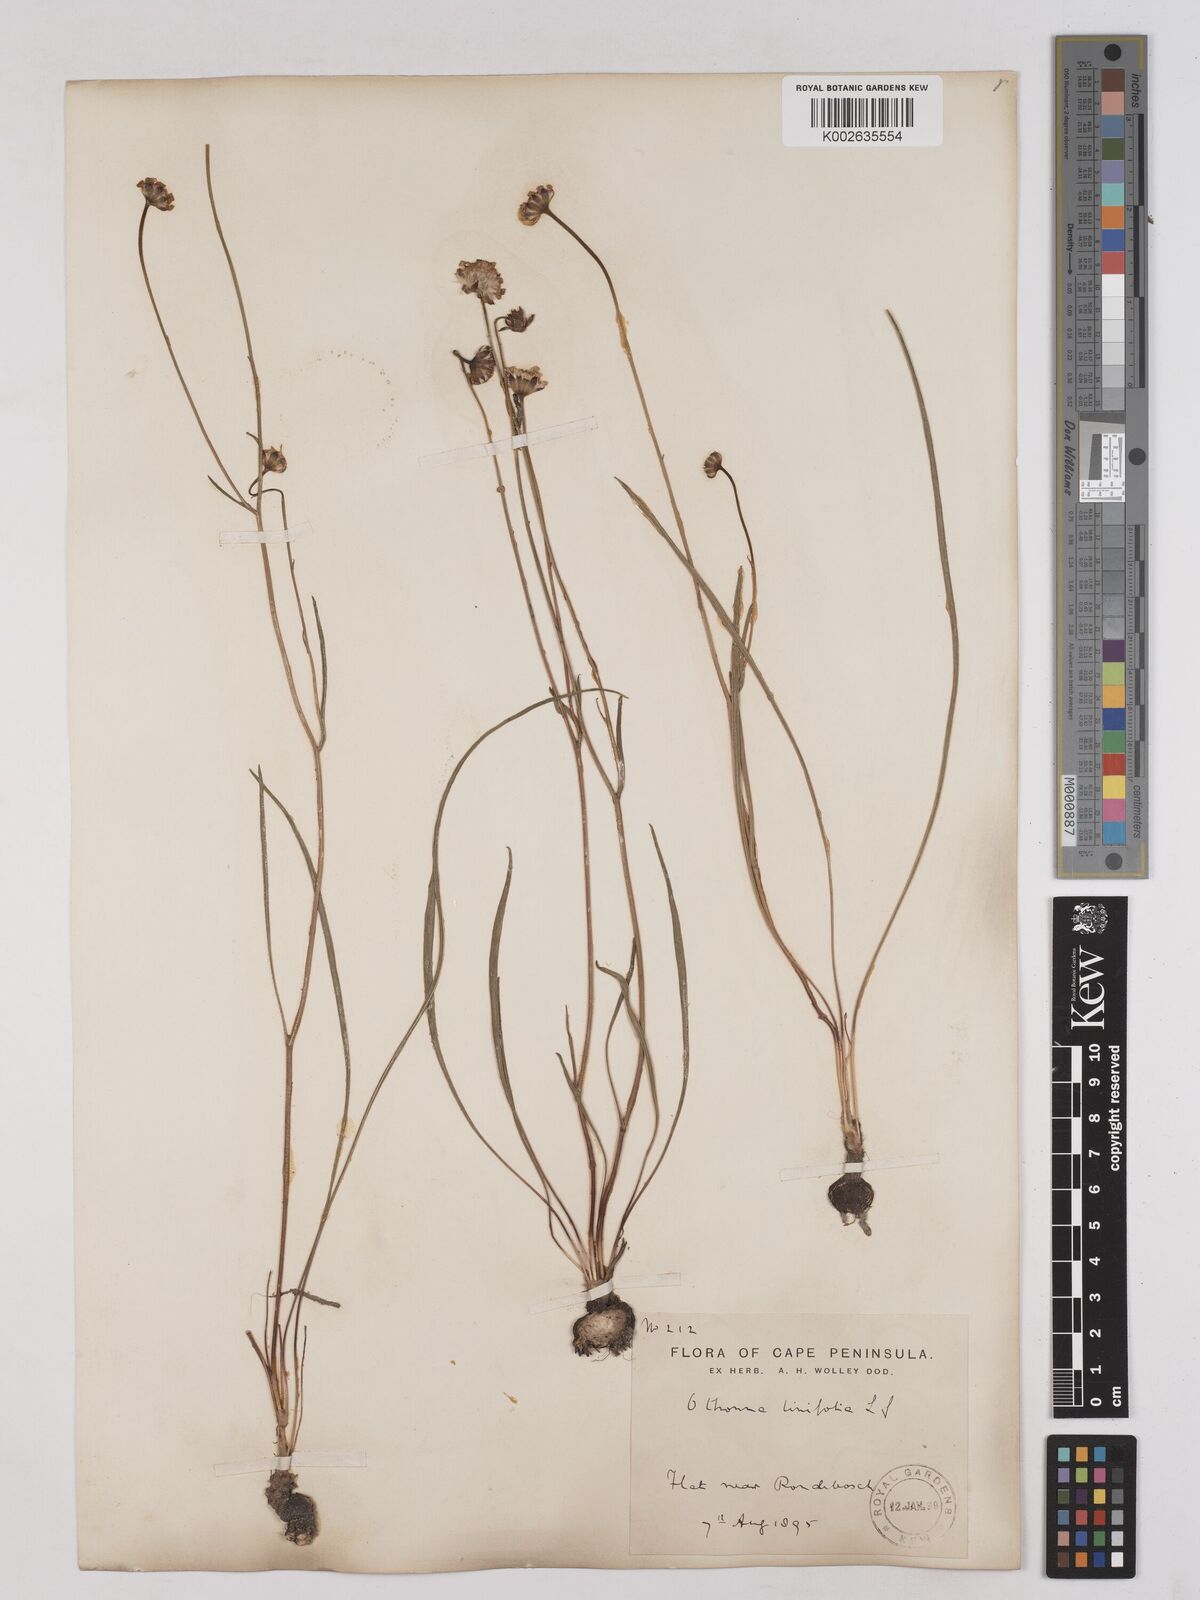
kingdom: Plantae
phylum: Tracheophyta
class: Magnoliopsida
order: Asterales
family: Asteraceae
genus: Othonna
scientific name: Othonna stenophylla
